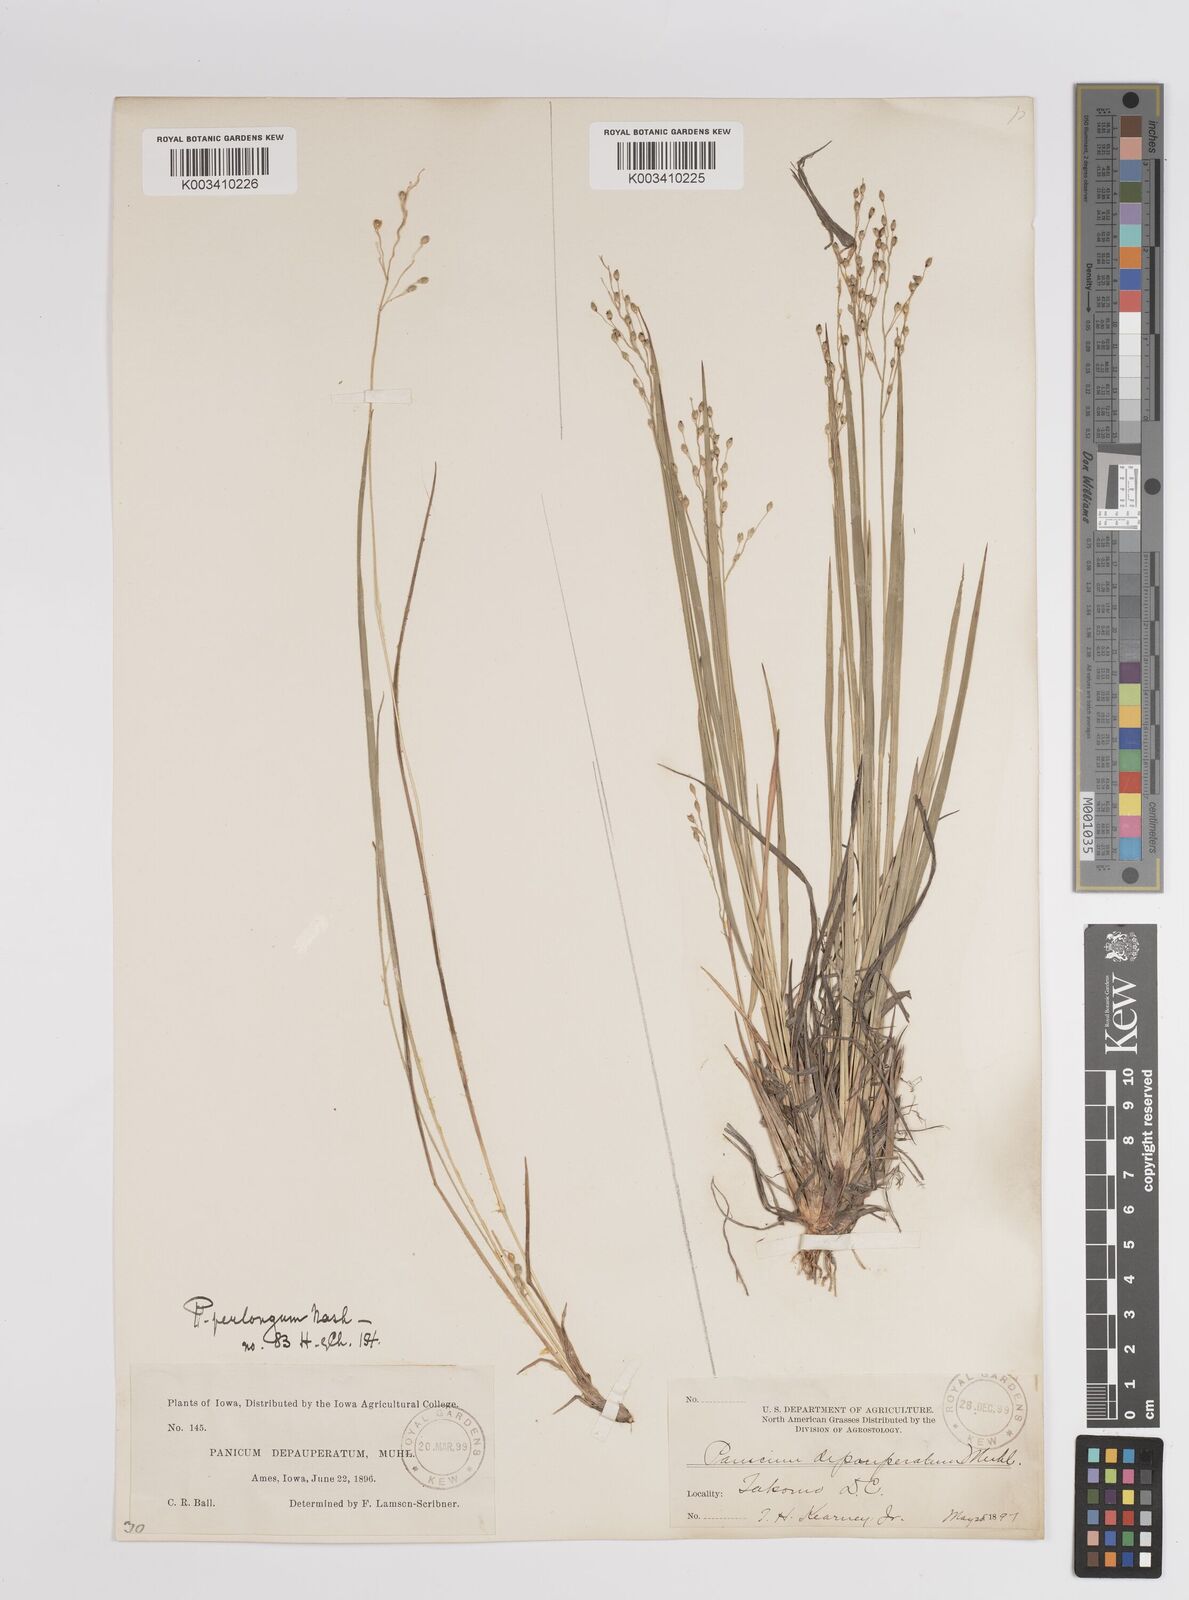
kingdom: Plantae
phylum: Tracheophyta
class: Liliopsida
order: Poales
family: Poaceae
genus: Dichanthelium
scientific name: Dichanthelium linearifolium
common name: Linear-leaved panicgrass
